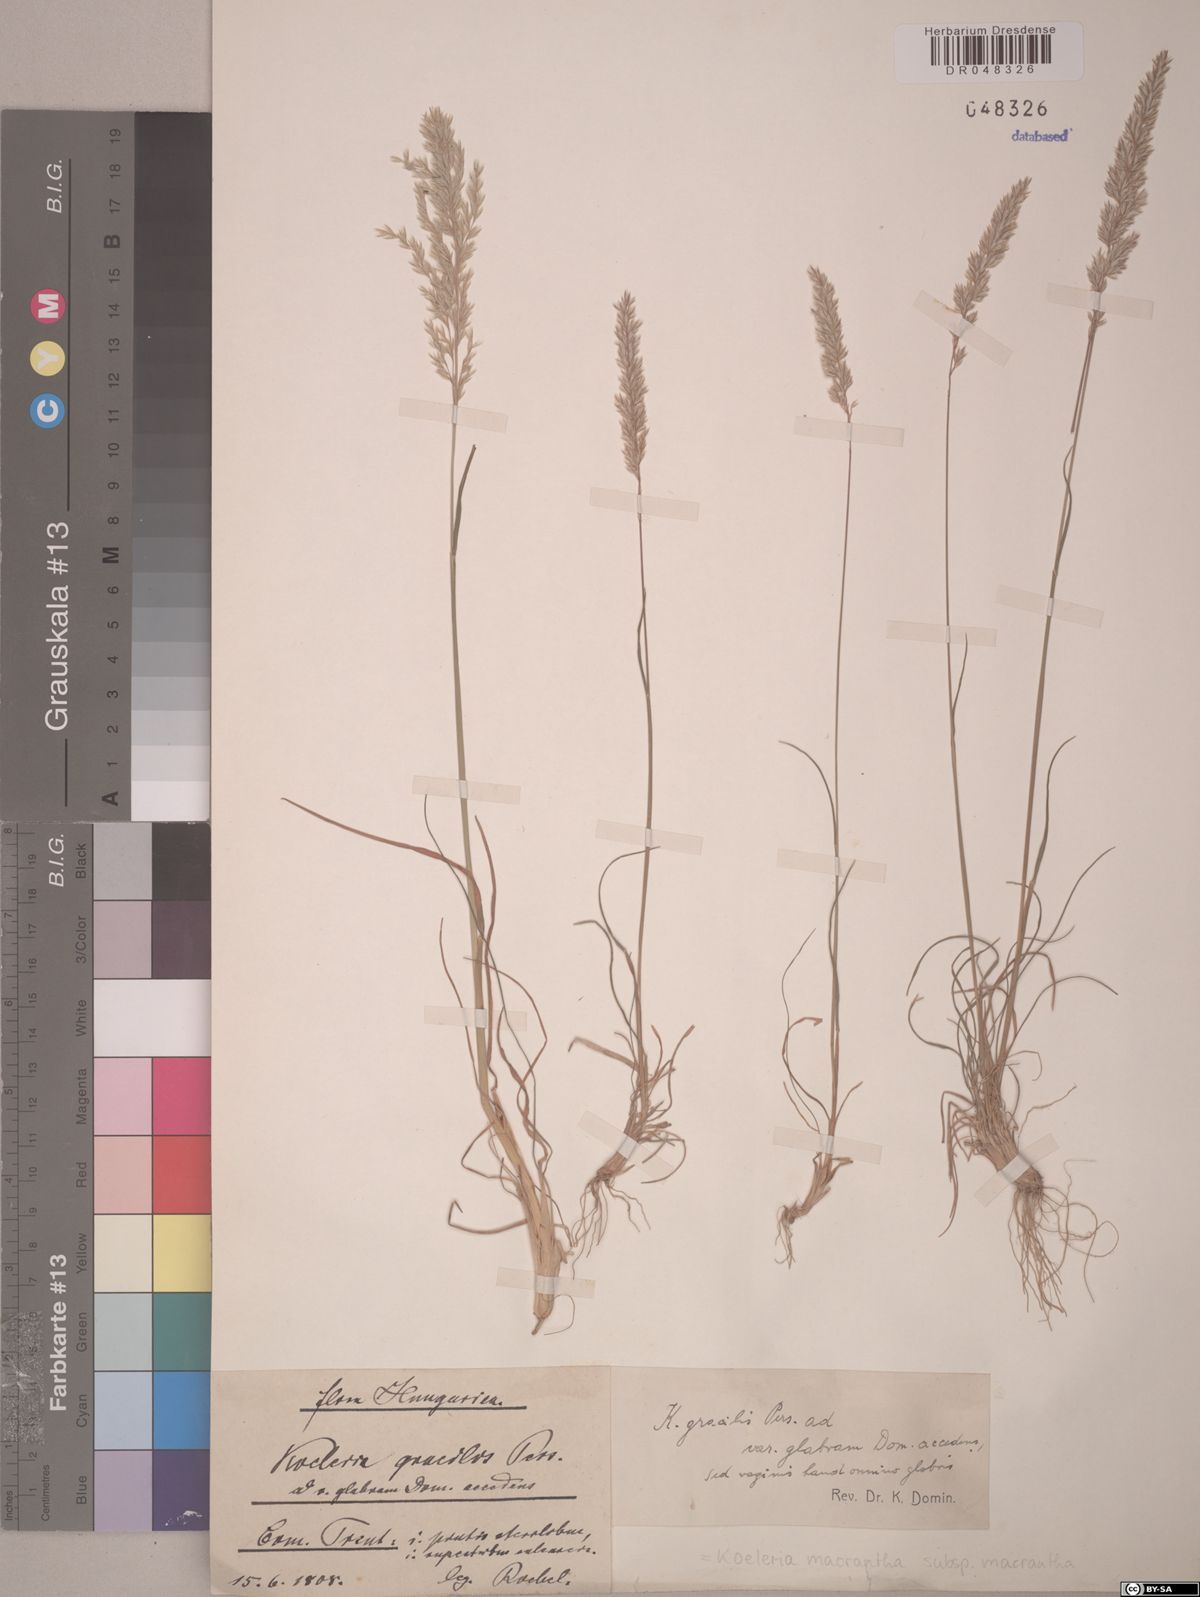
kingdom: Plantae
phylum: Tracheophyta
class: Liliopsida
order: Poales
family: Poaceae
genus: Koeleria
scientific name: Koeleria macrantha
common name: Crested hair-grass
